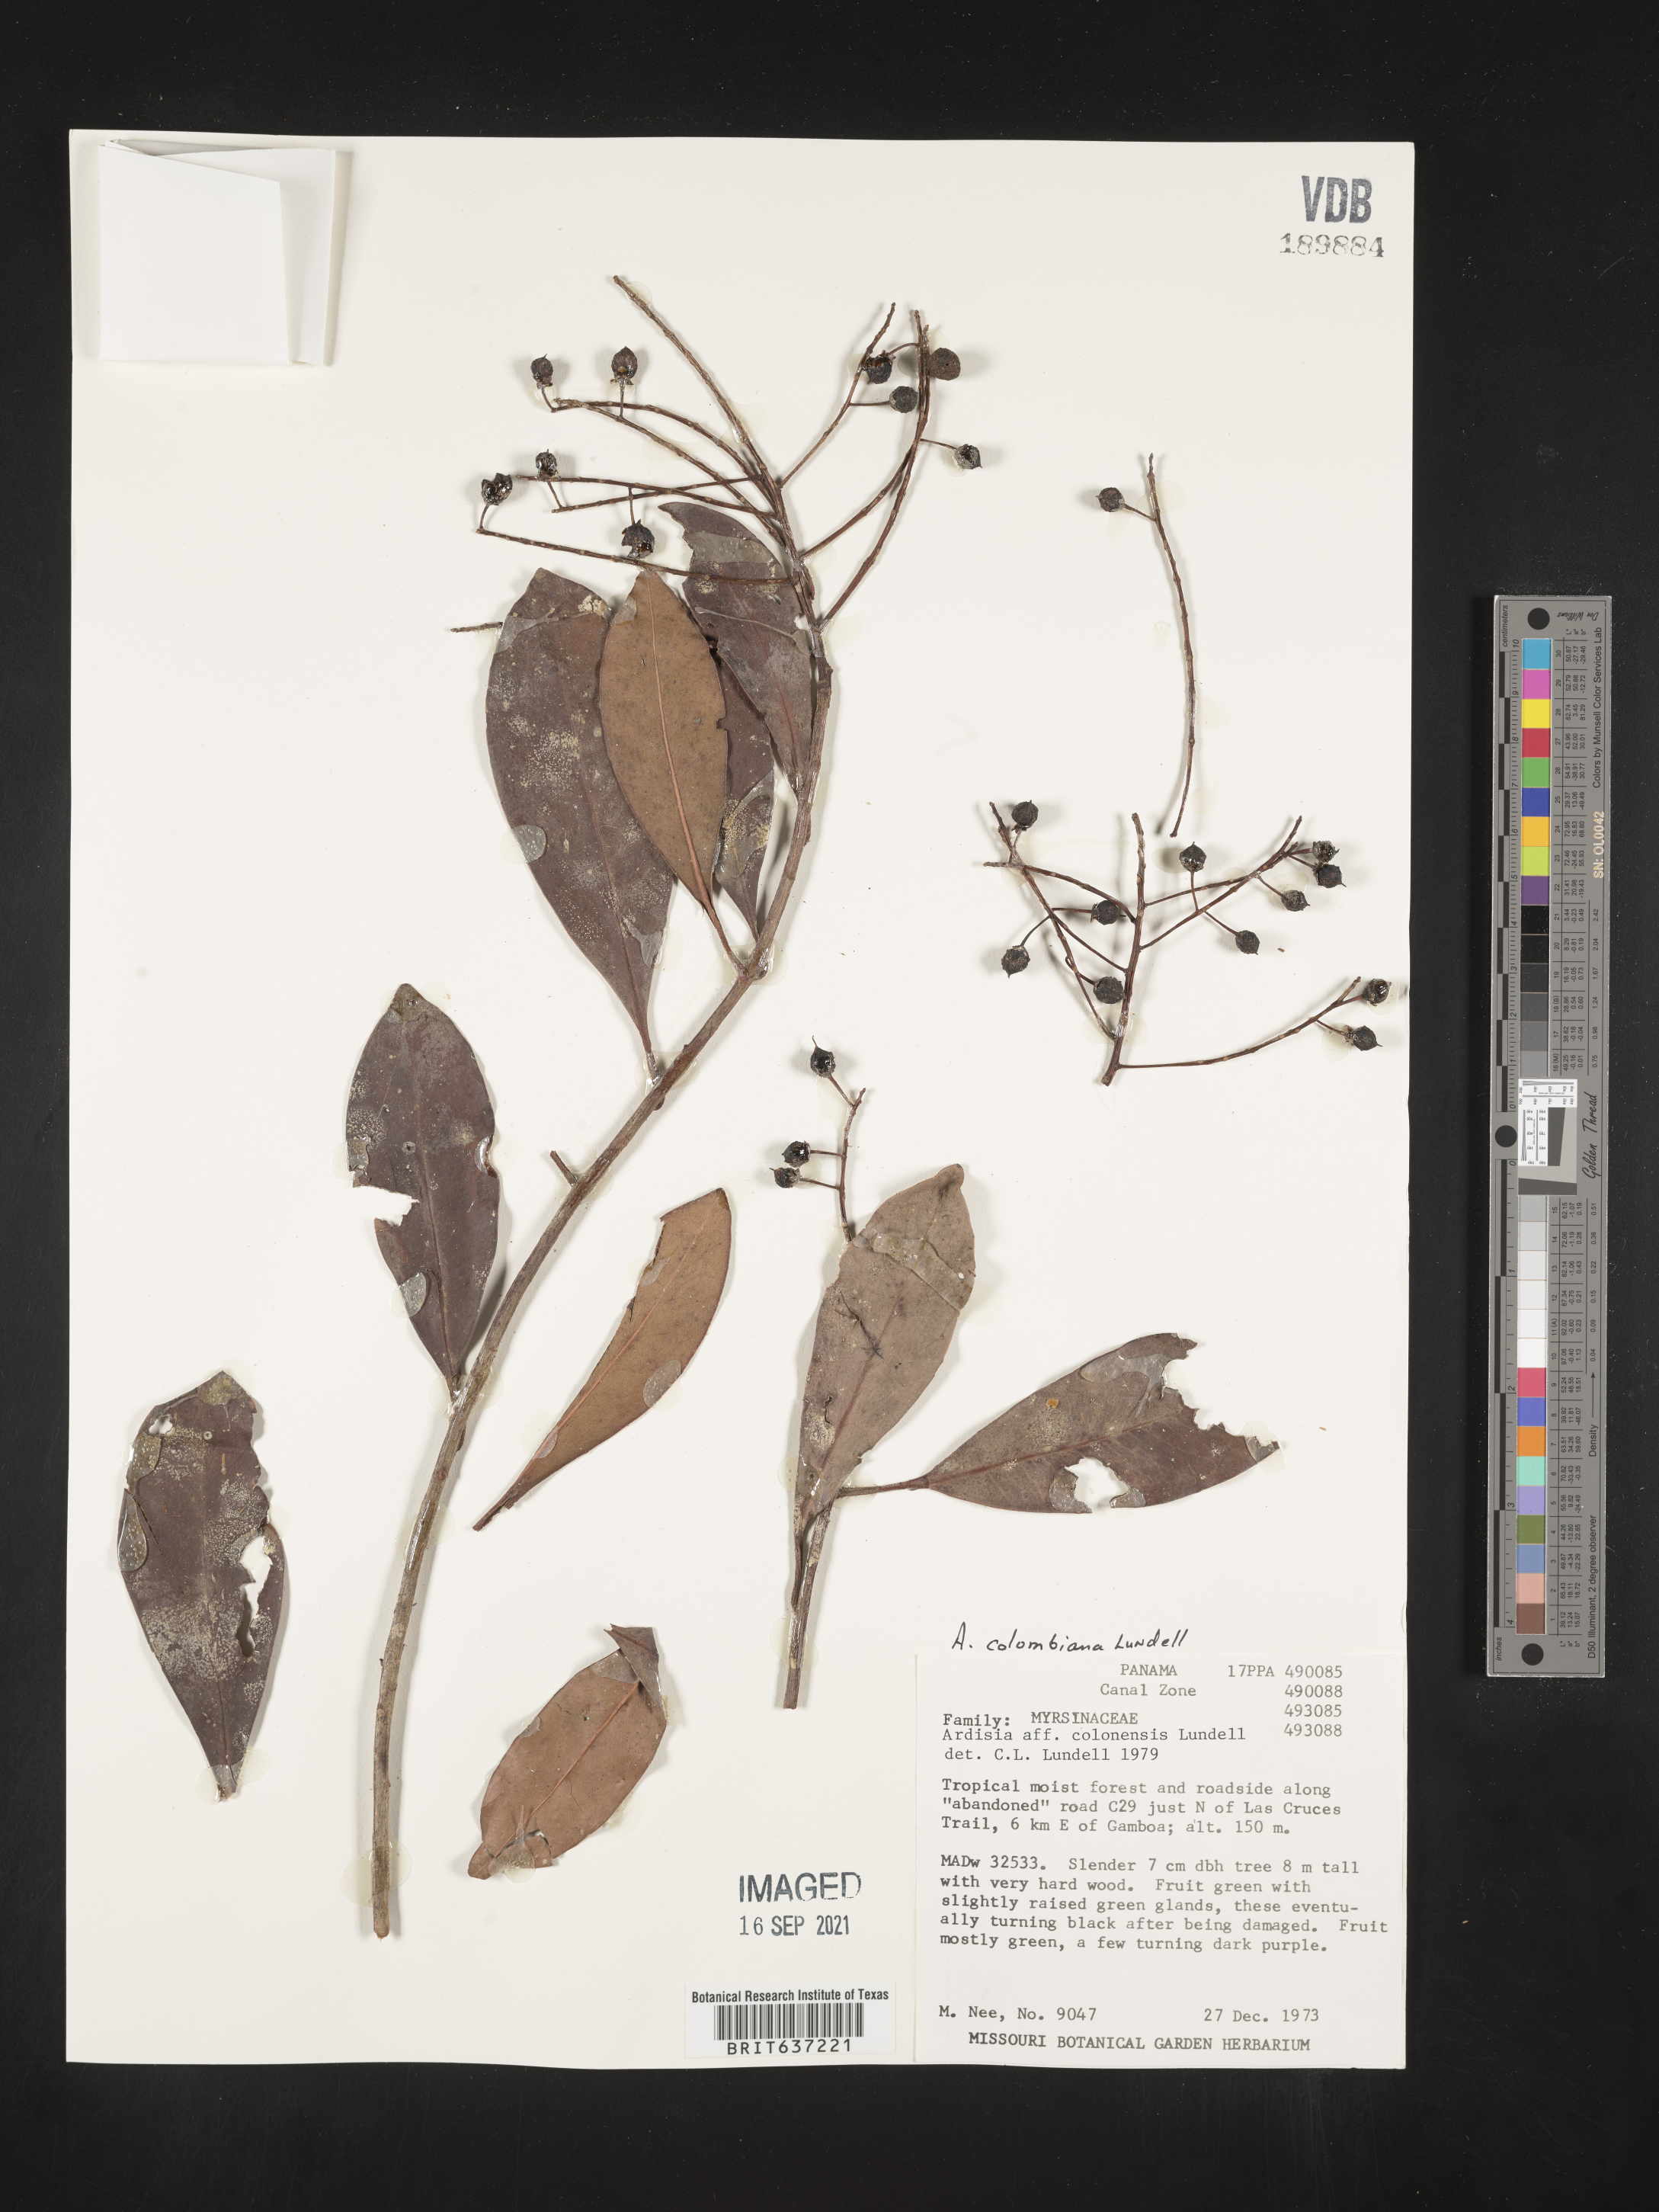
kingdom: Plantae
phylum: Tracheophyta
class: Magnoliopsida
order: Ericales
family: Primulaceae
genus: Ardisia
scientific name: Ardisia
